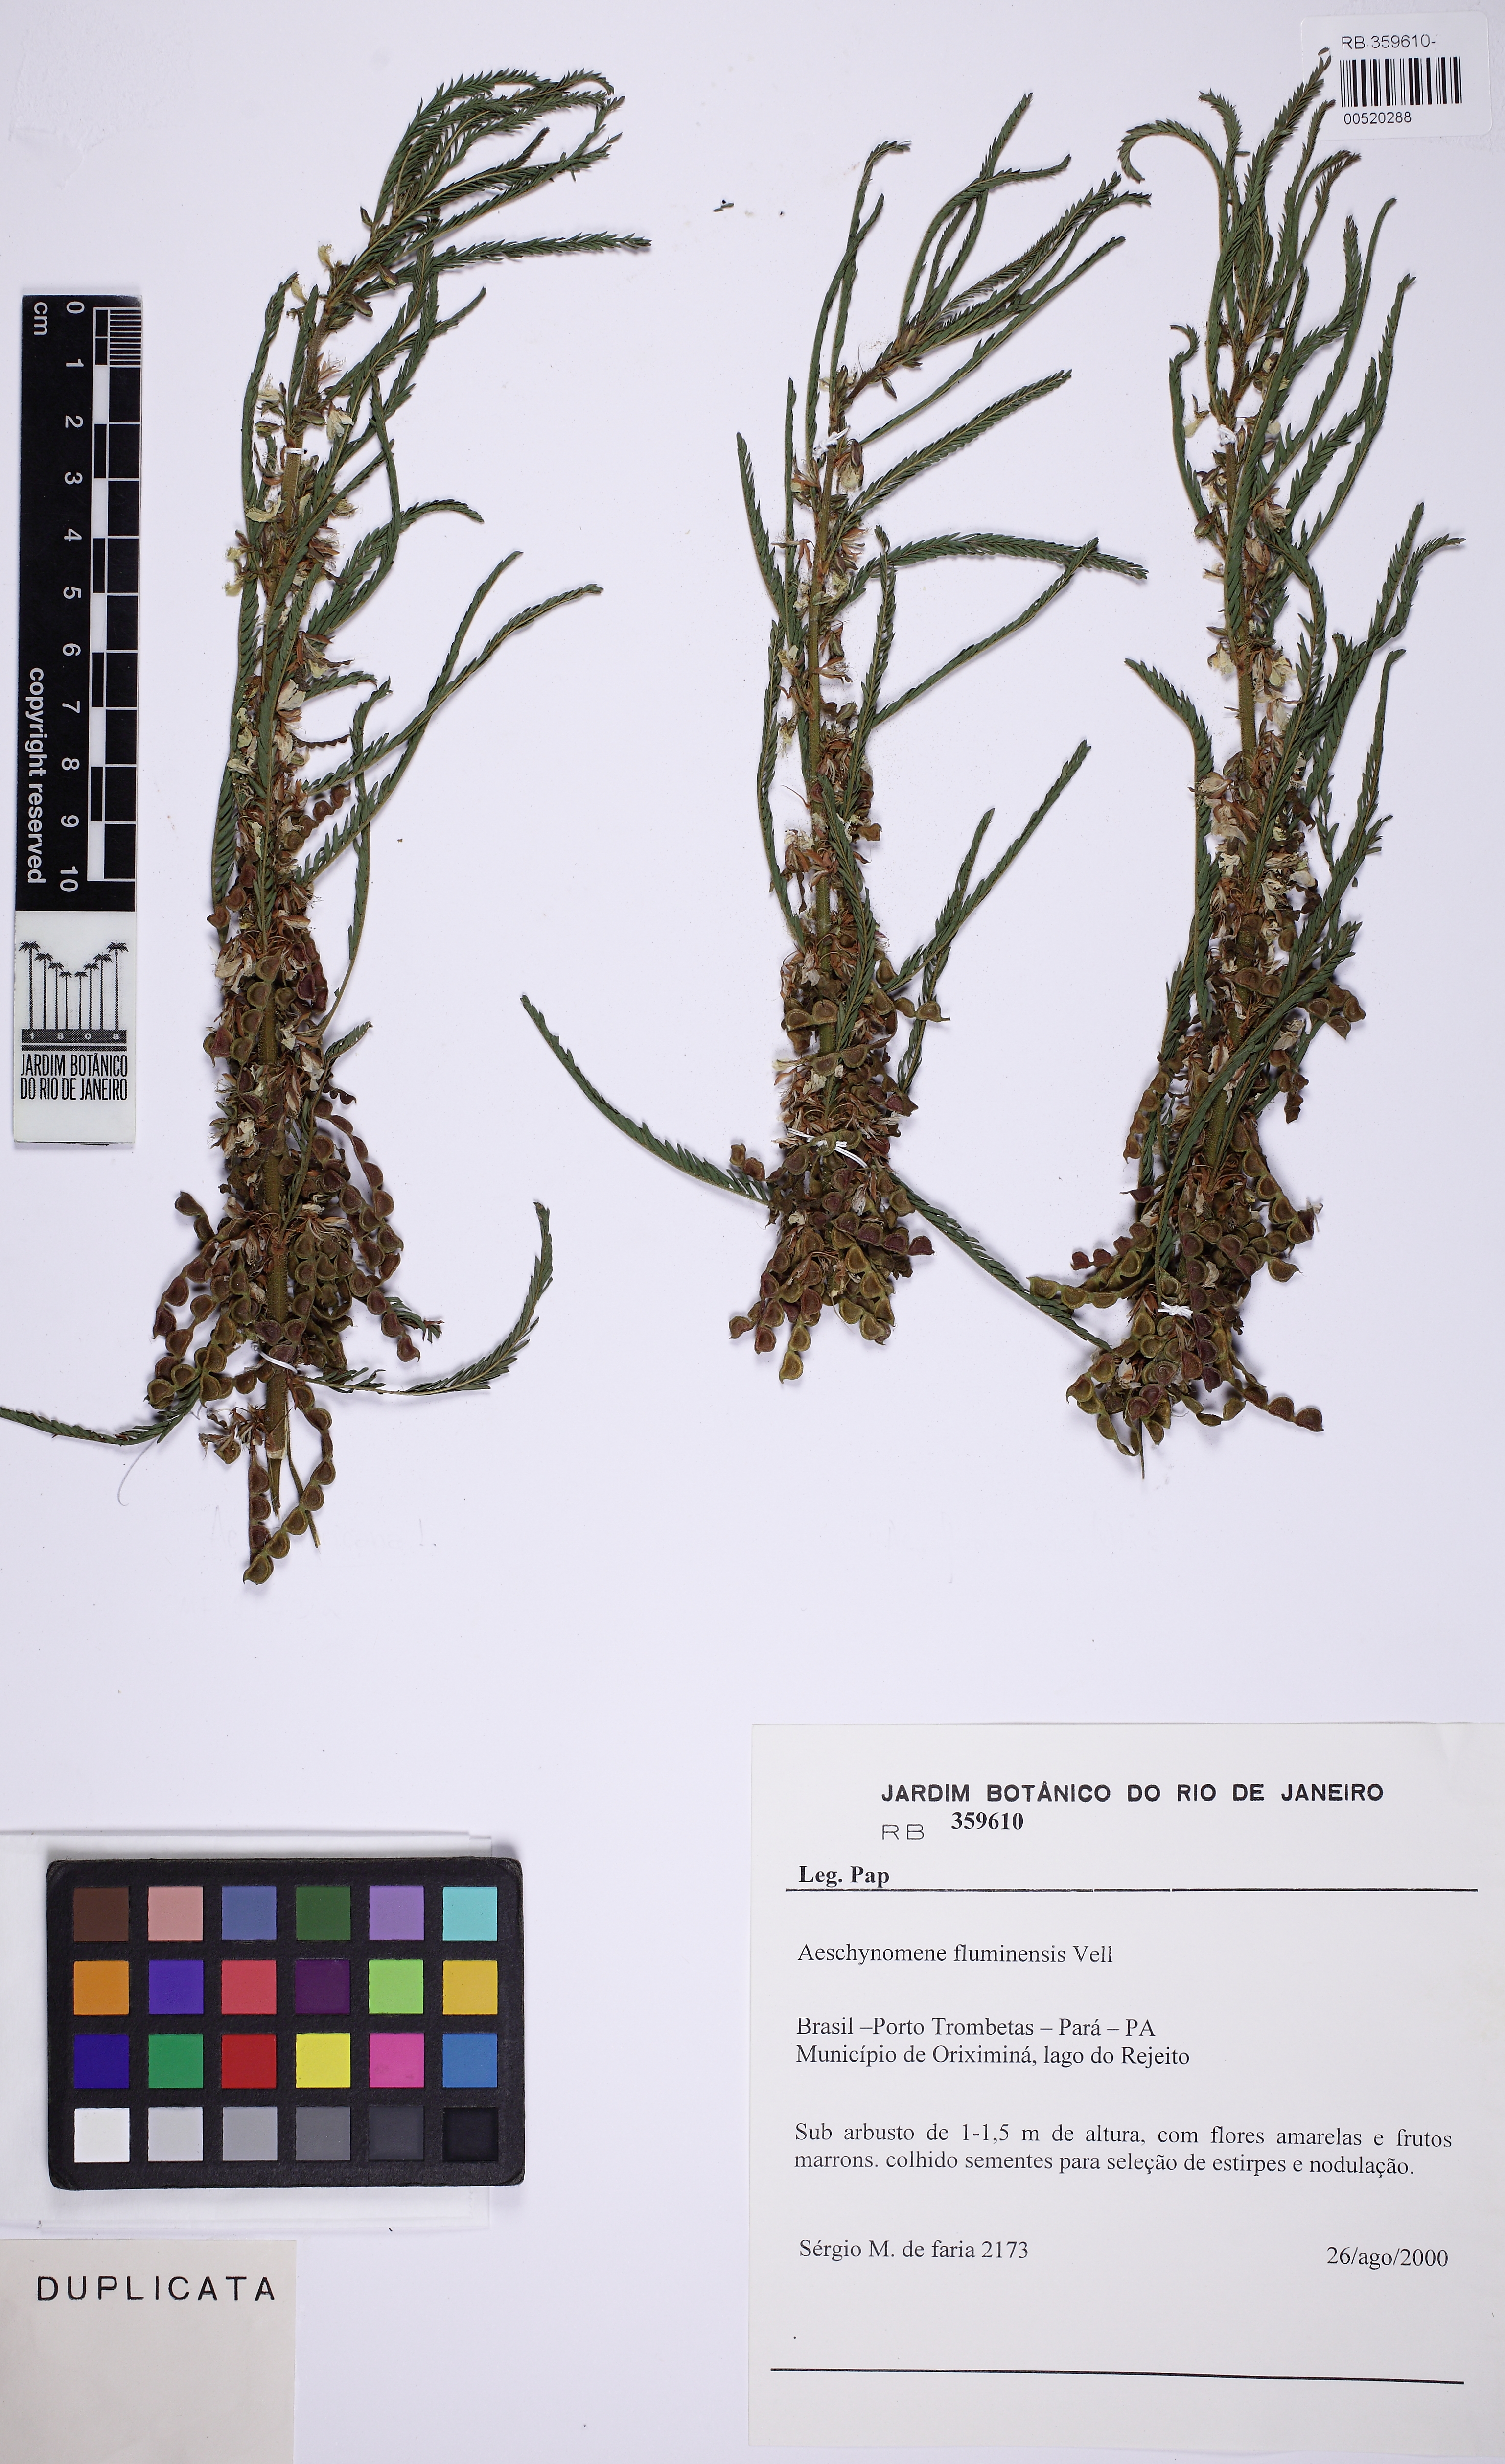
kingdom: Plantae
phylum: Tracheophyta
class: Magnoliopsida
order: Fabales
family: Fabaceae
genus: Aeschynomene
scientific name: Aeschynomene fluminensis
